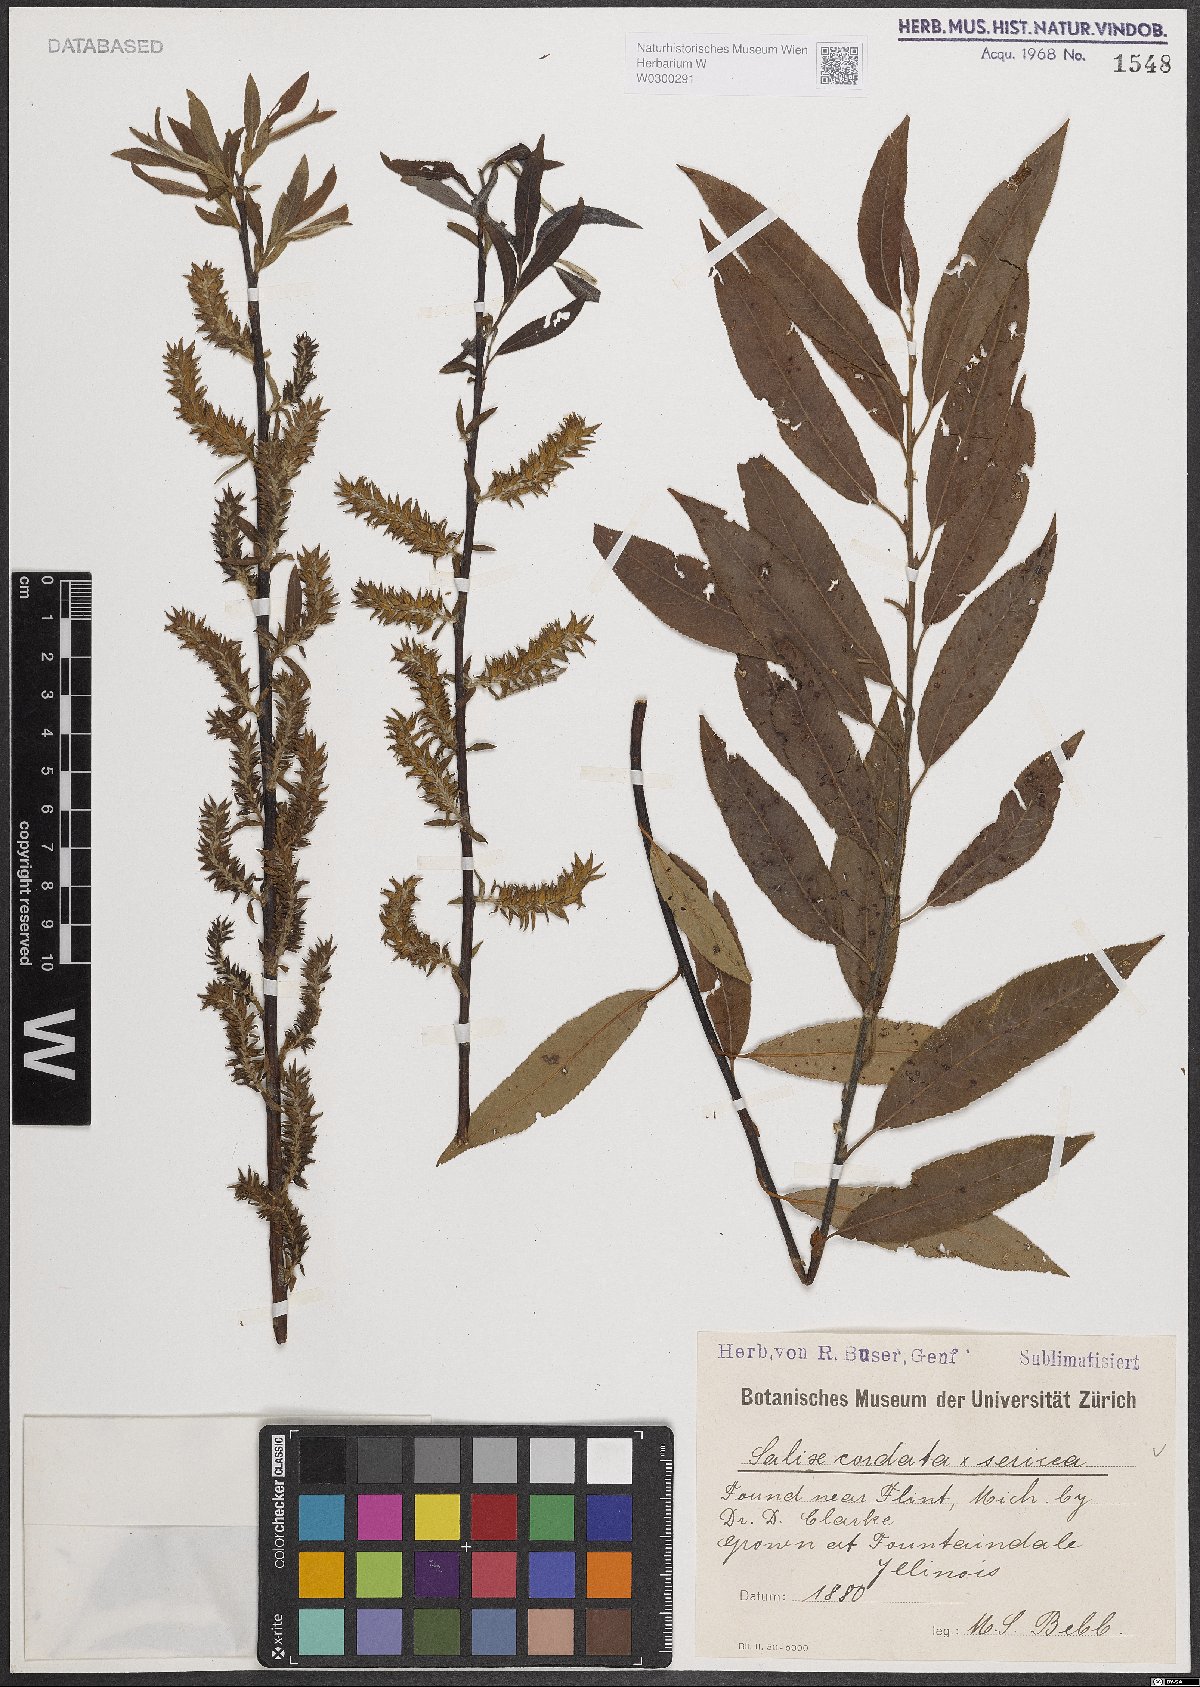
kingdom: Plantae
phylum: Tracheophyta
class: Magnoliopsida
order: Malpighiales
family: Salicaceae
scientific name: Salicaceae
